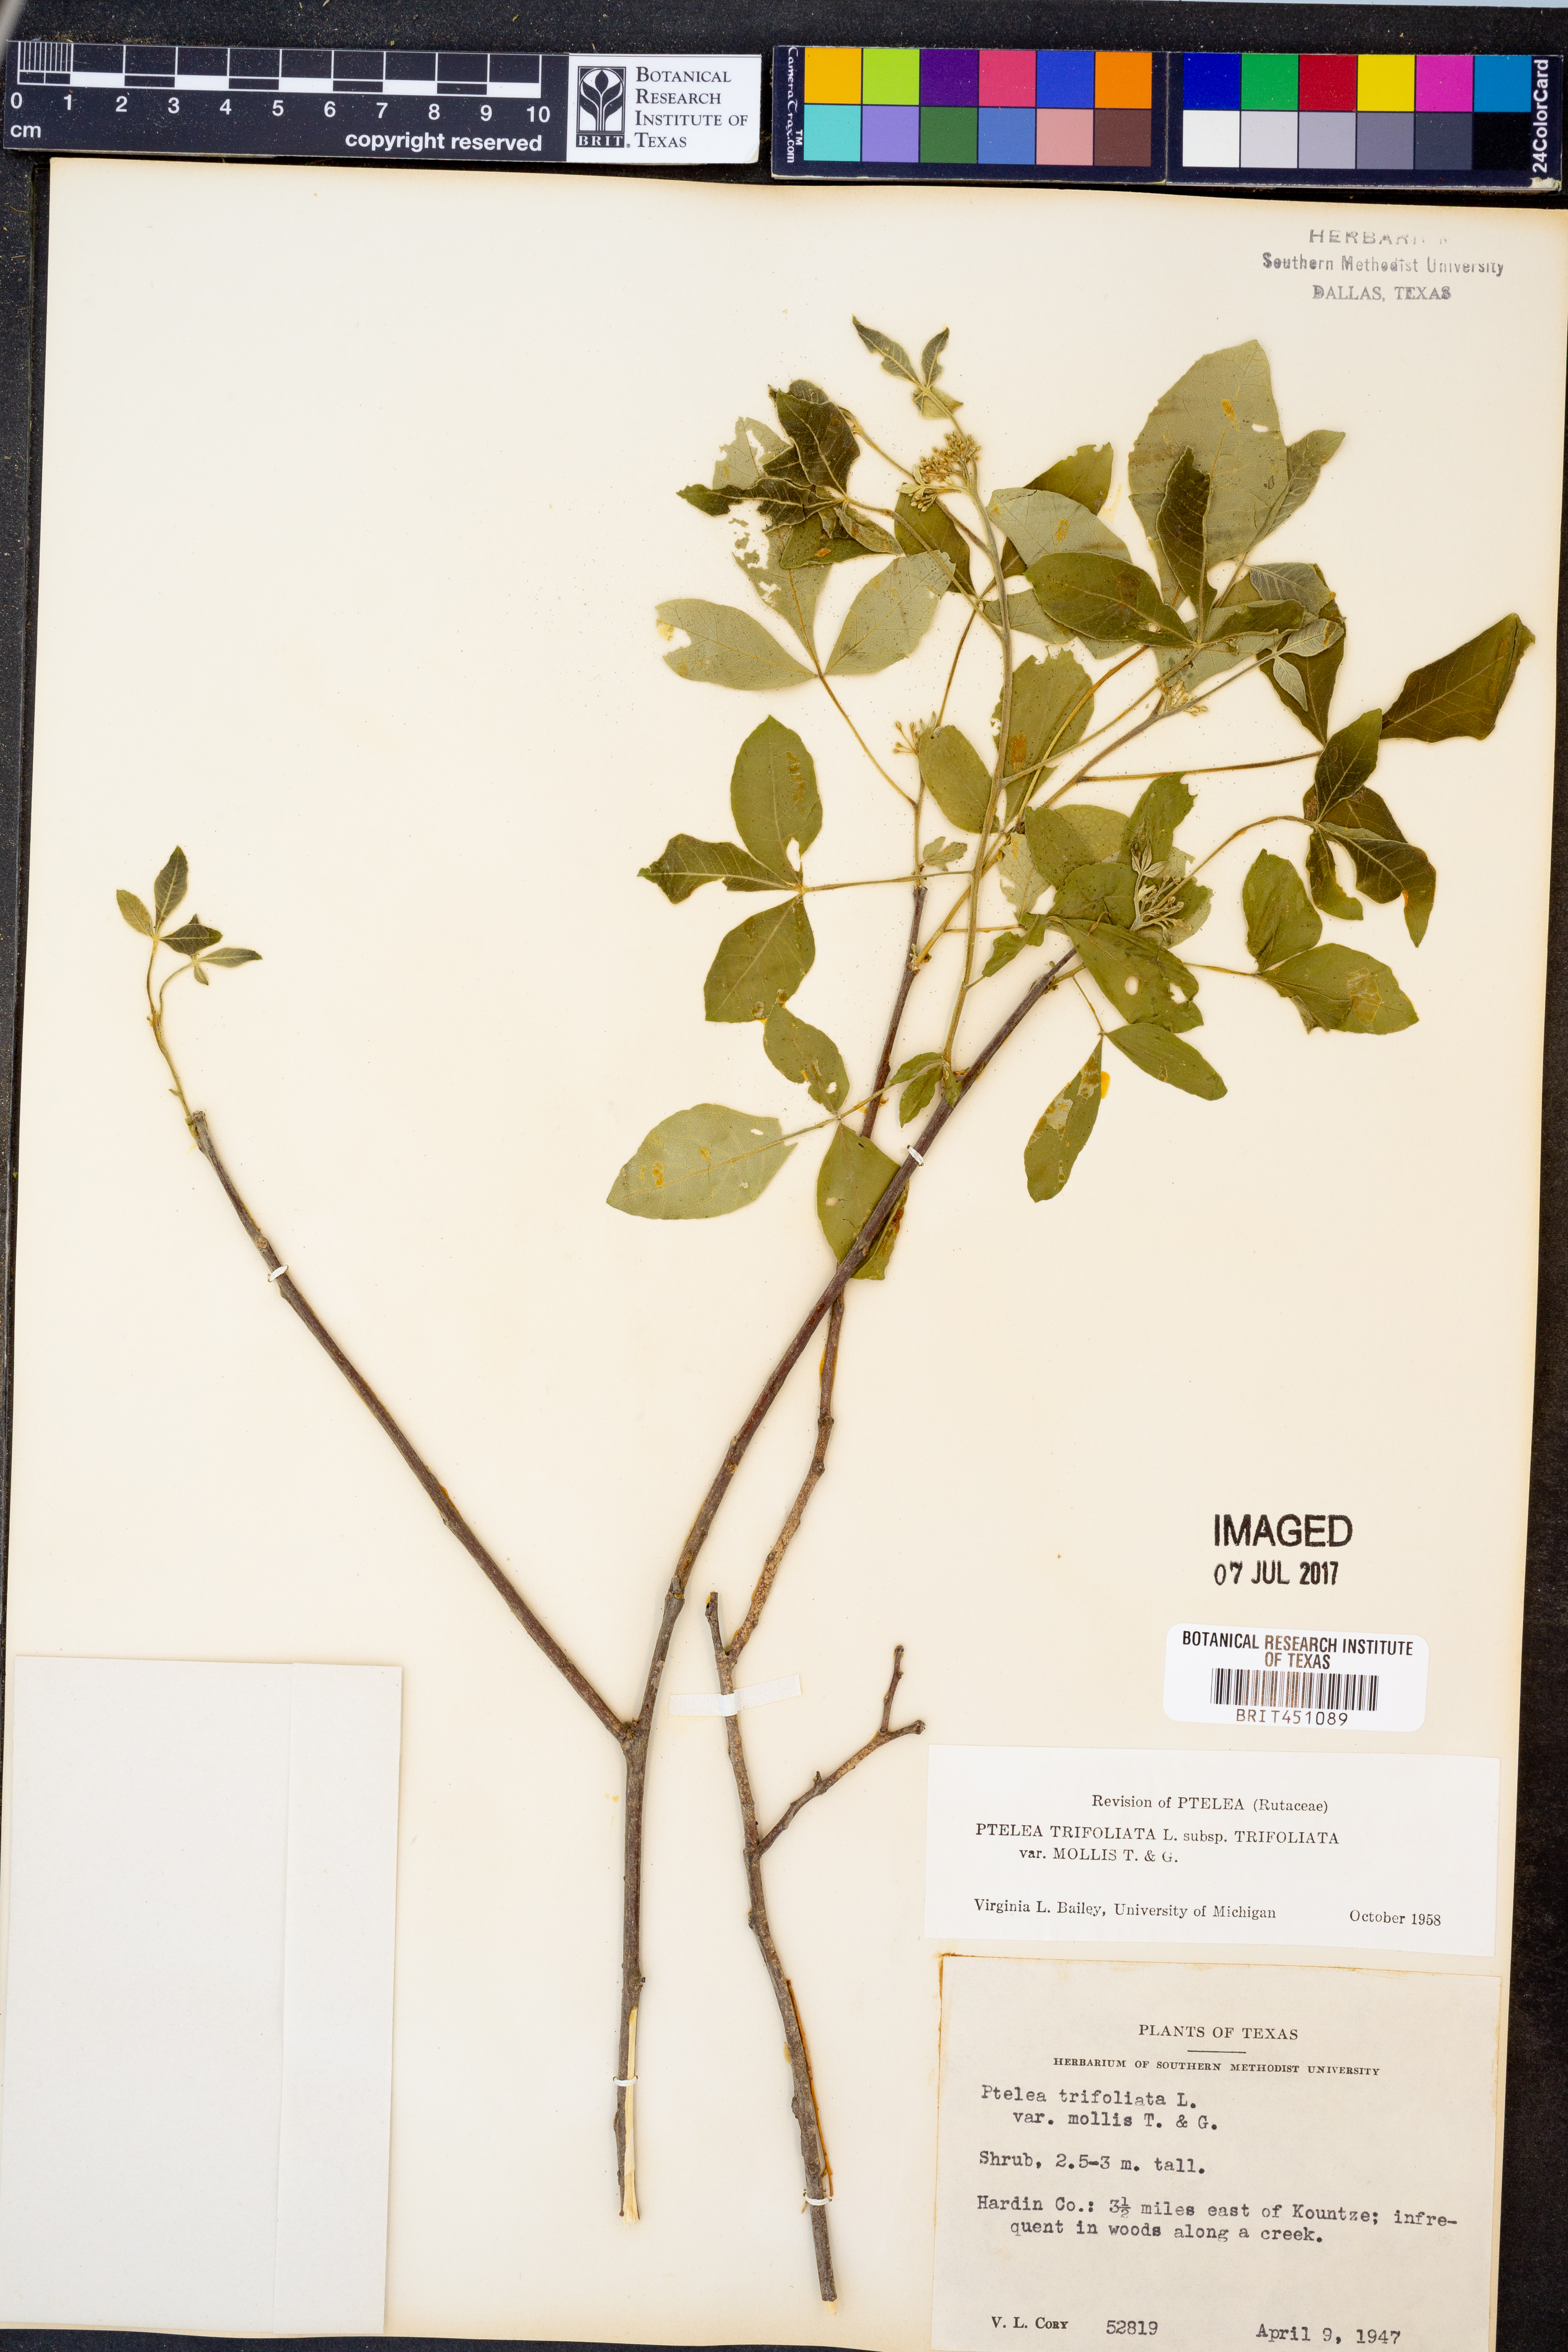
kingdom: Plantae
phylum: Tracheophyta
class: Magnoliopsida
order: Sapindales
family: Rutaceae
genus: Ptelea
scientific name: Ptelea trifoliata
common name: Common hop-tree
